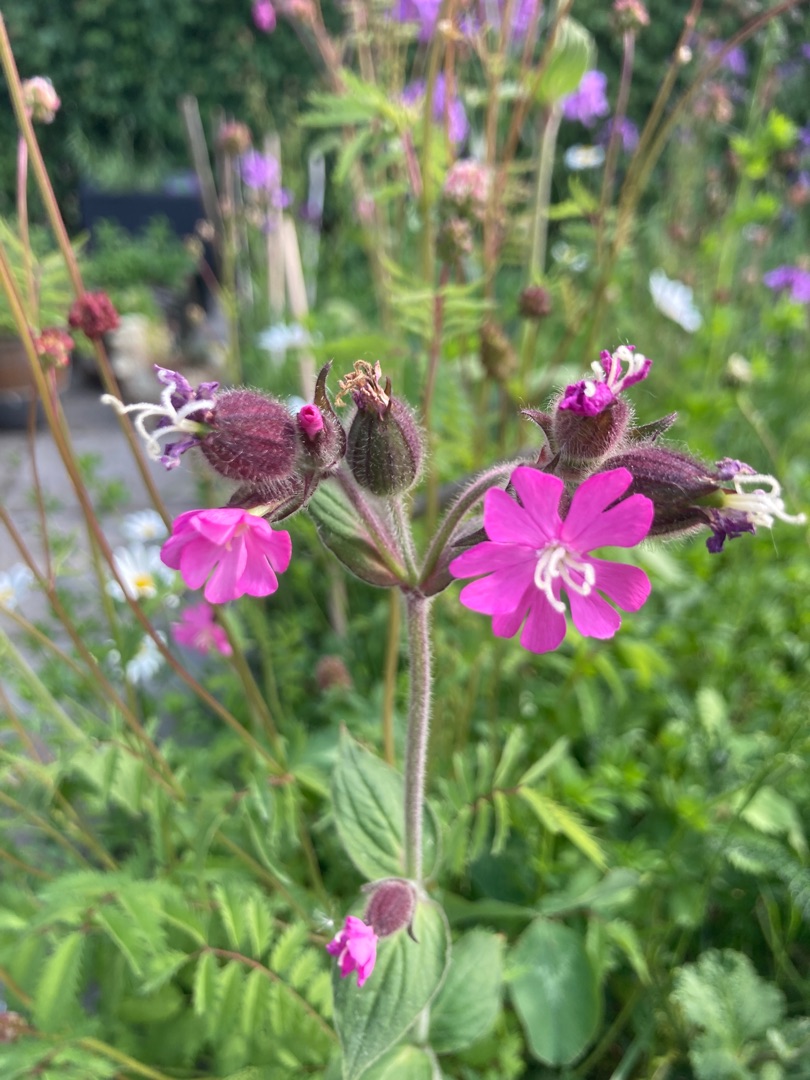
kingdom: Plantae
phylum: Tracheophyta
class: Magnoliopsida
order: Caryophyllales
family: Caryophyllaceae
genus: Silene
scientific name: Silene dioica
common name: Dagpragtstjerne
